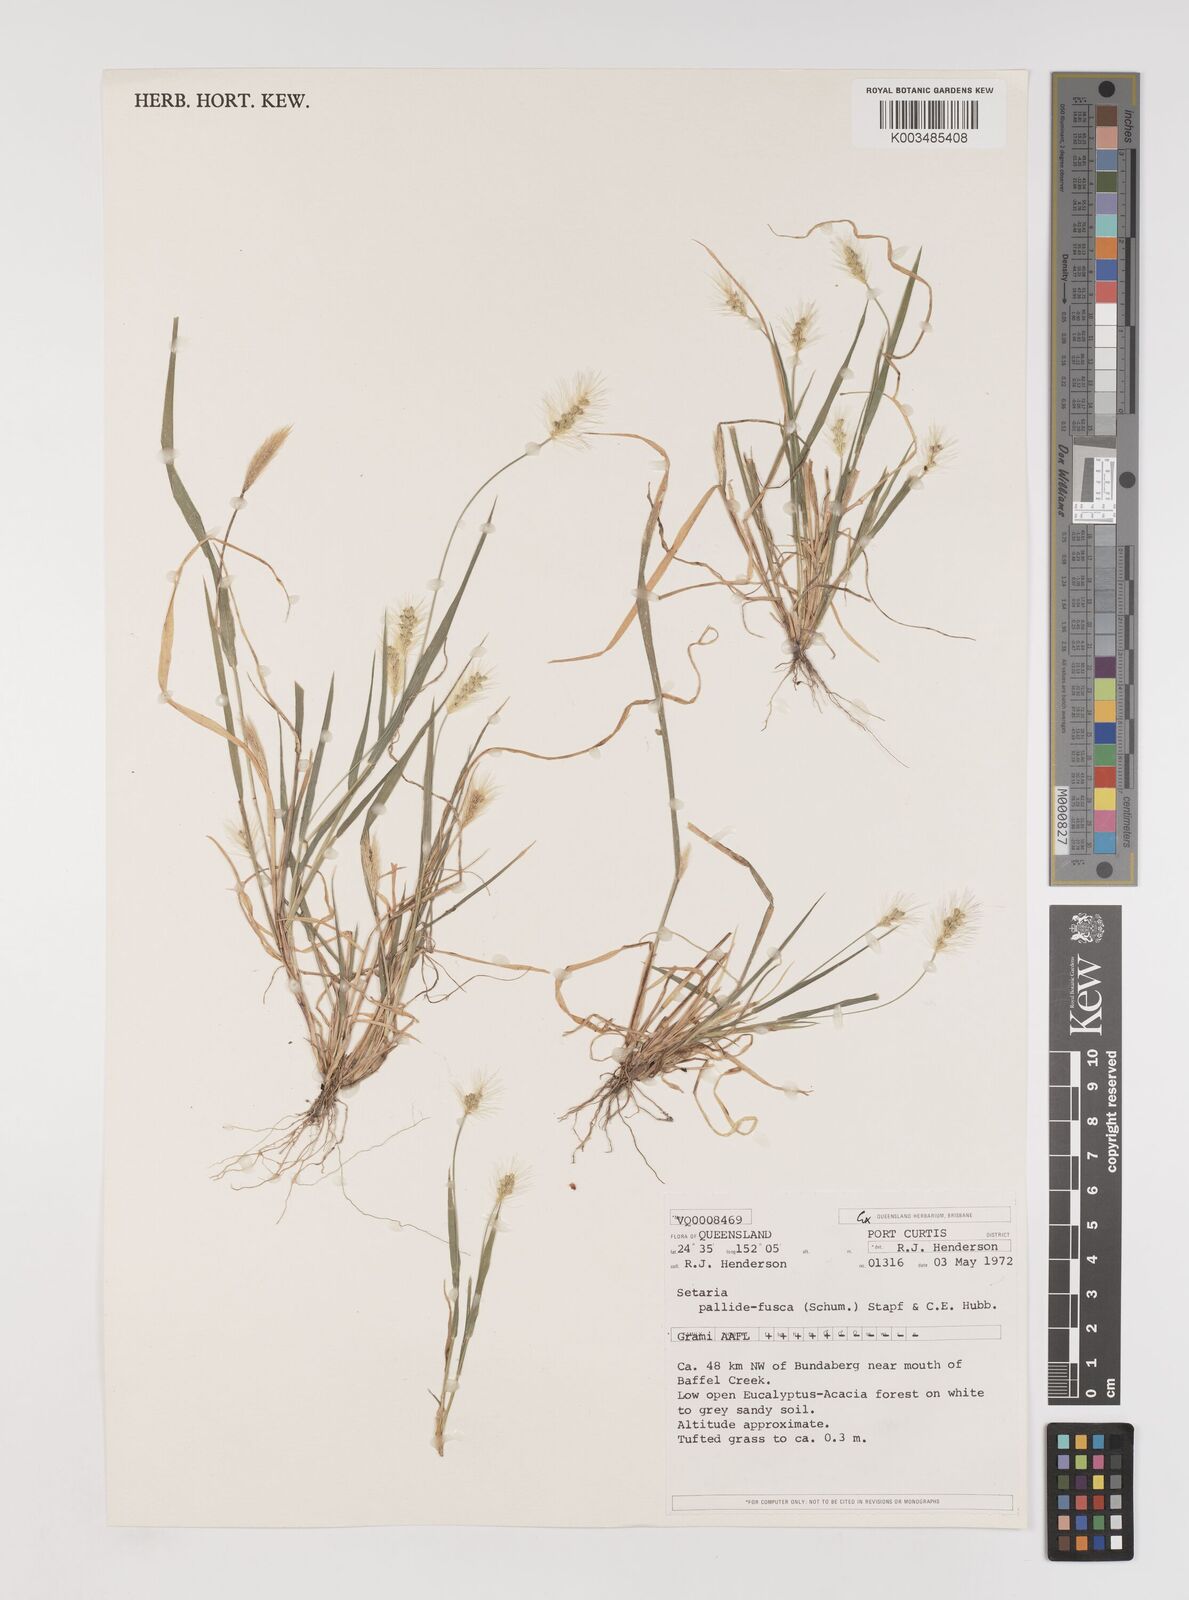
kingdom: Plantae
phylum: Tracheophyta
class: Liliopsida
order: Poales
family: Poaceae
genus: Setaria
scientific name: Setaria pumila
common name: Yellow bristle-grass
